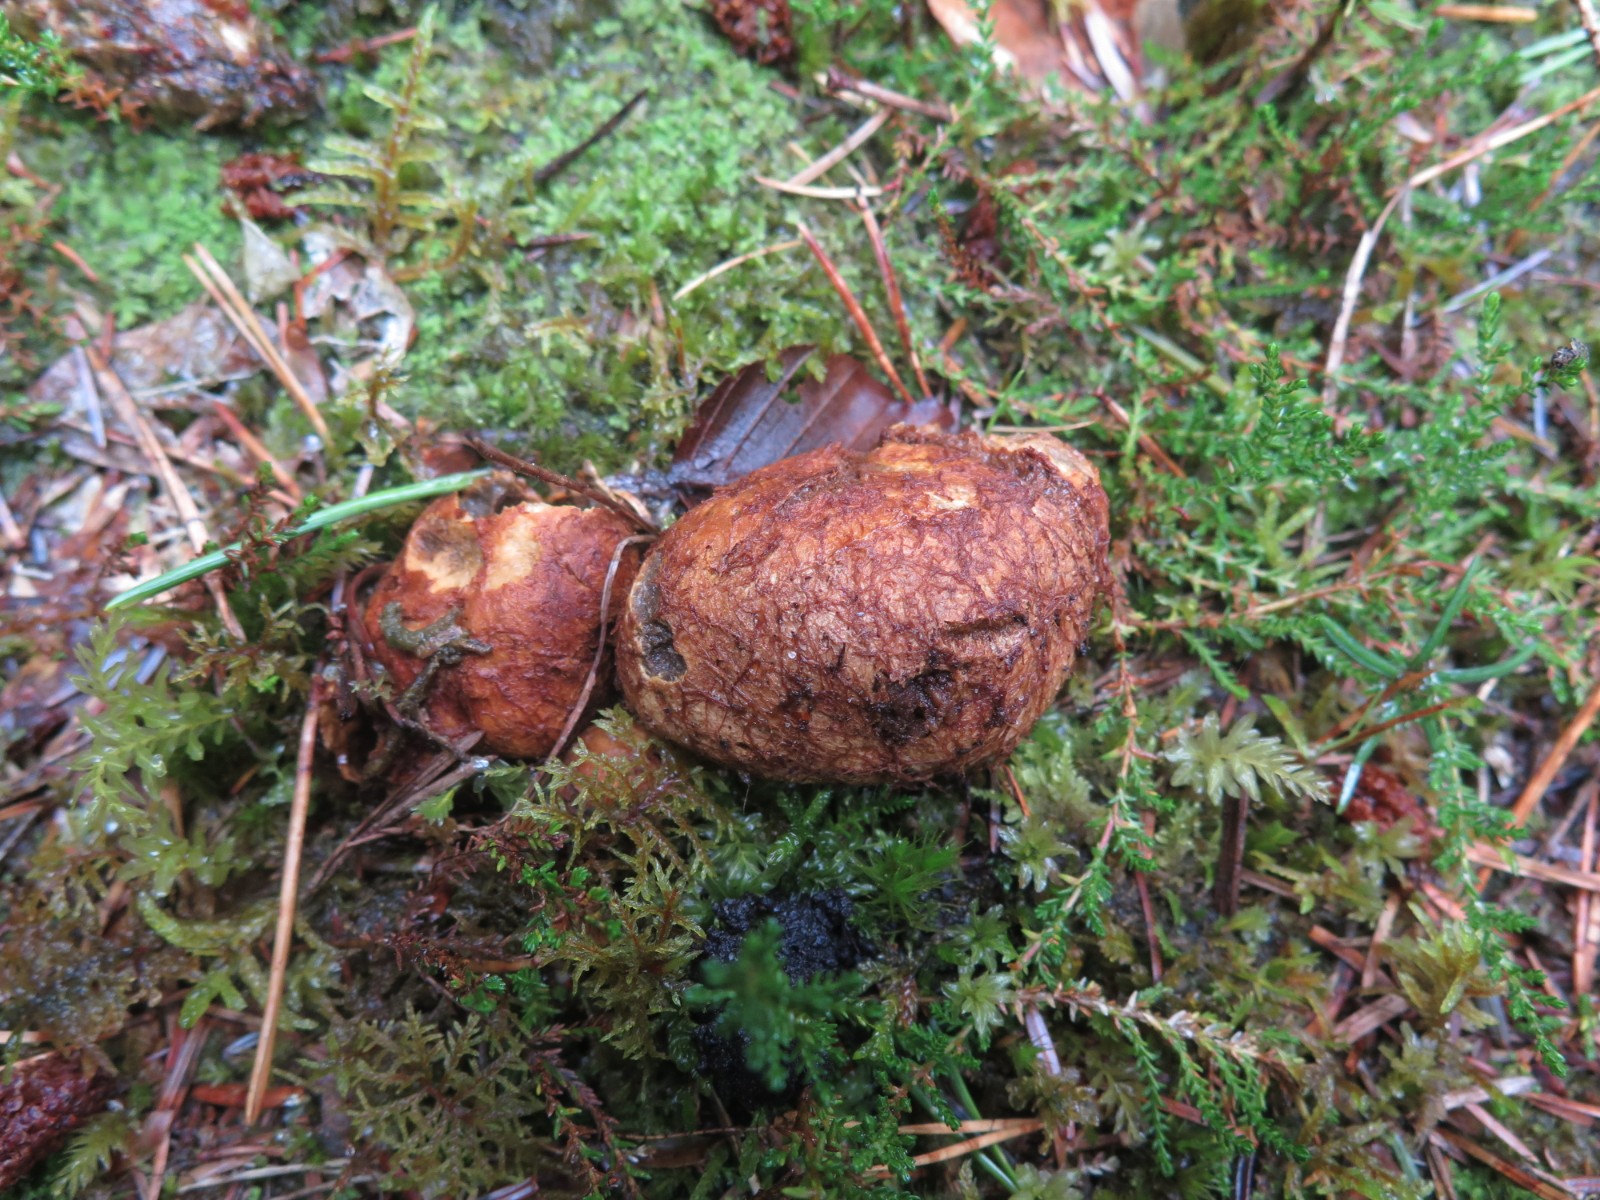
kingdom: Fungi
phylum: Basidiomycota
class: Agaricomycetes
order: Boletales
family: Rhizopogonaceae
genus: Rhizopogon
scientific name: Rhizopogon obtextus
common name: gul skægtrøffel
